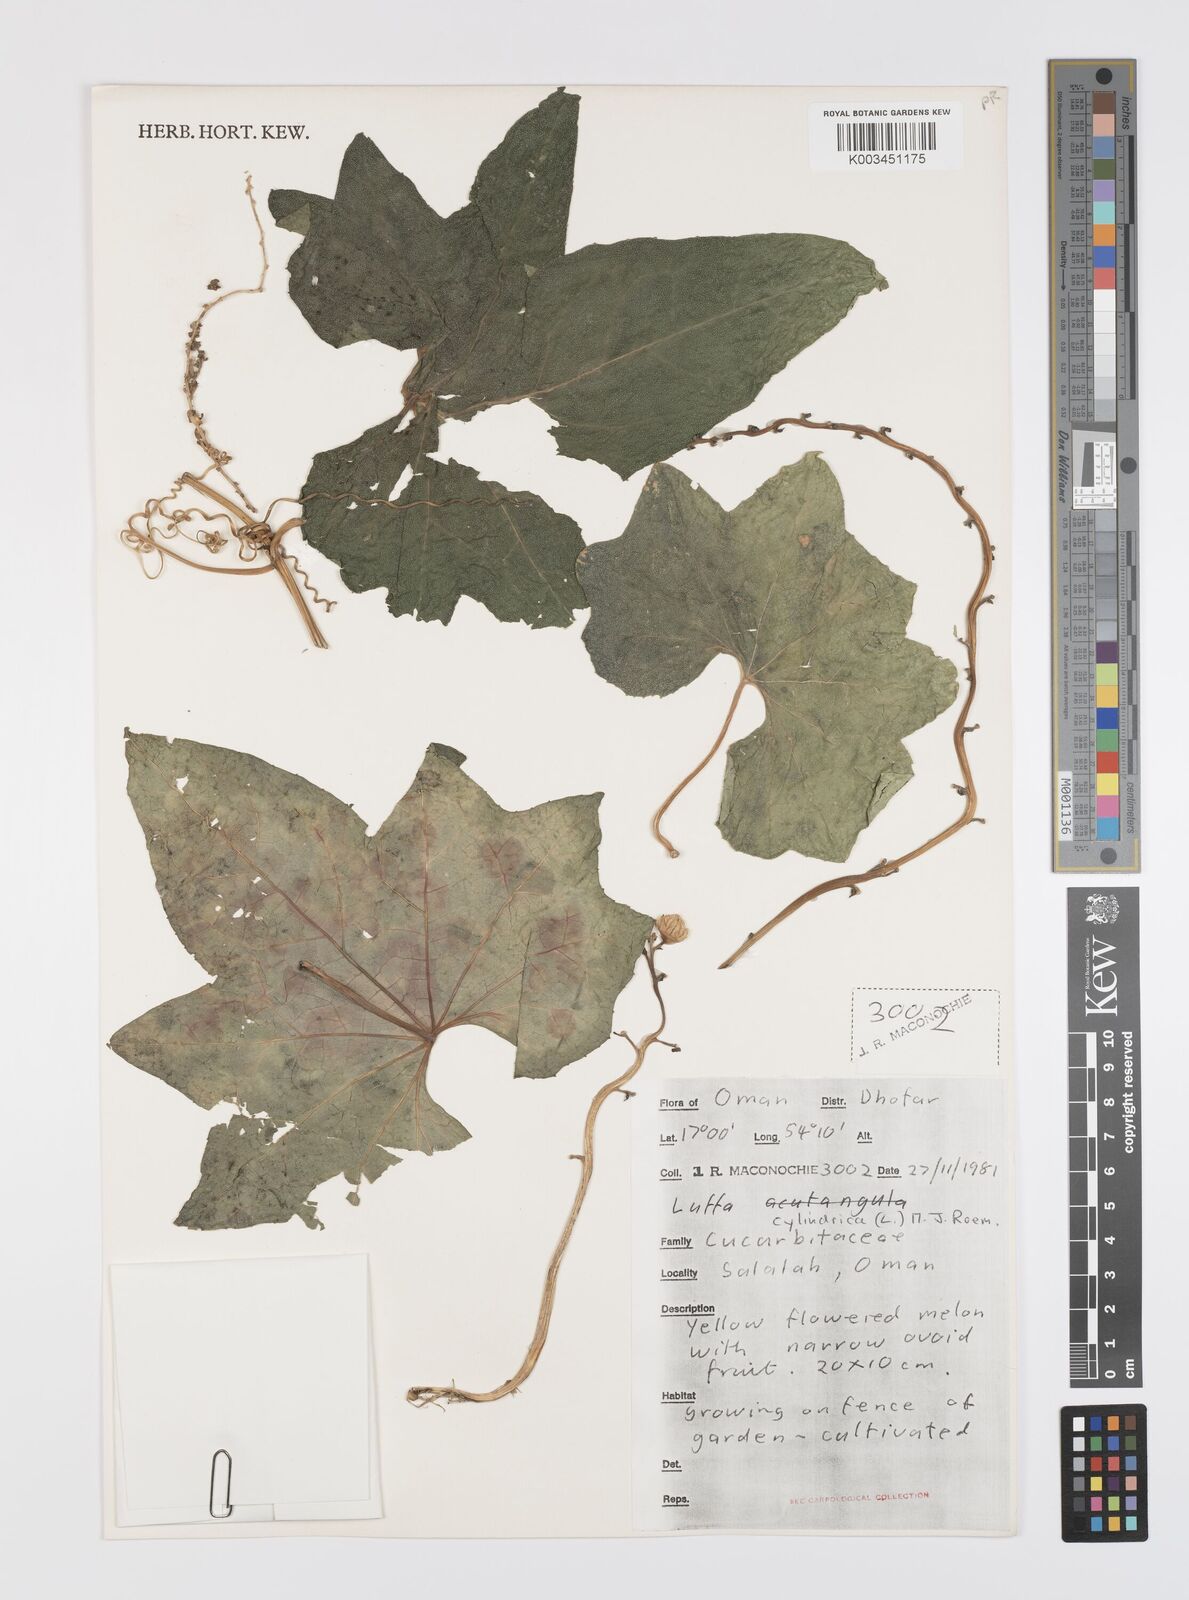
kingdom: Plantae
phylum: Tracheophyta
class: Magnoliopsida
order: Cucurbitales
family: Cucurbitaceae
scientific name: Cucurbitaceae
